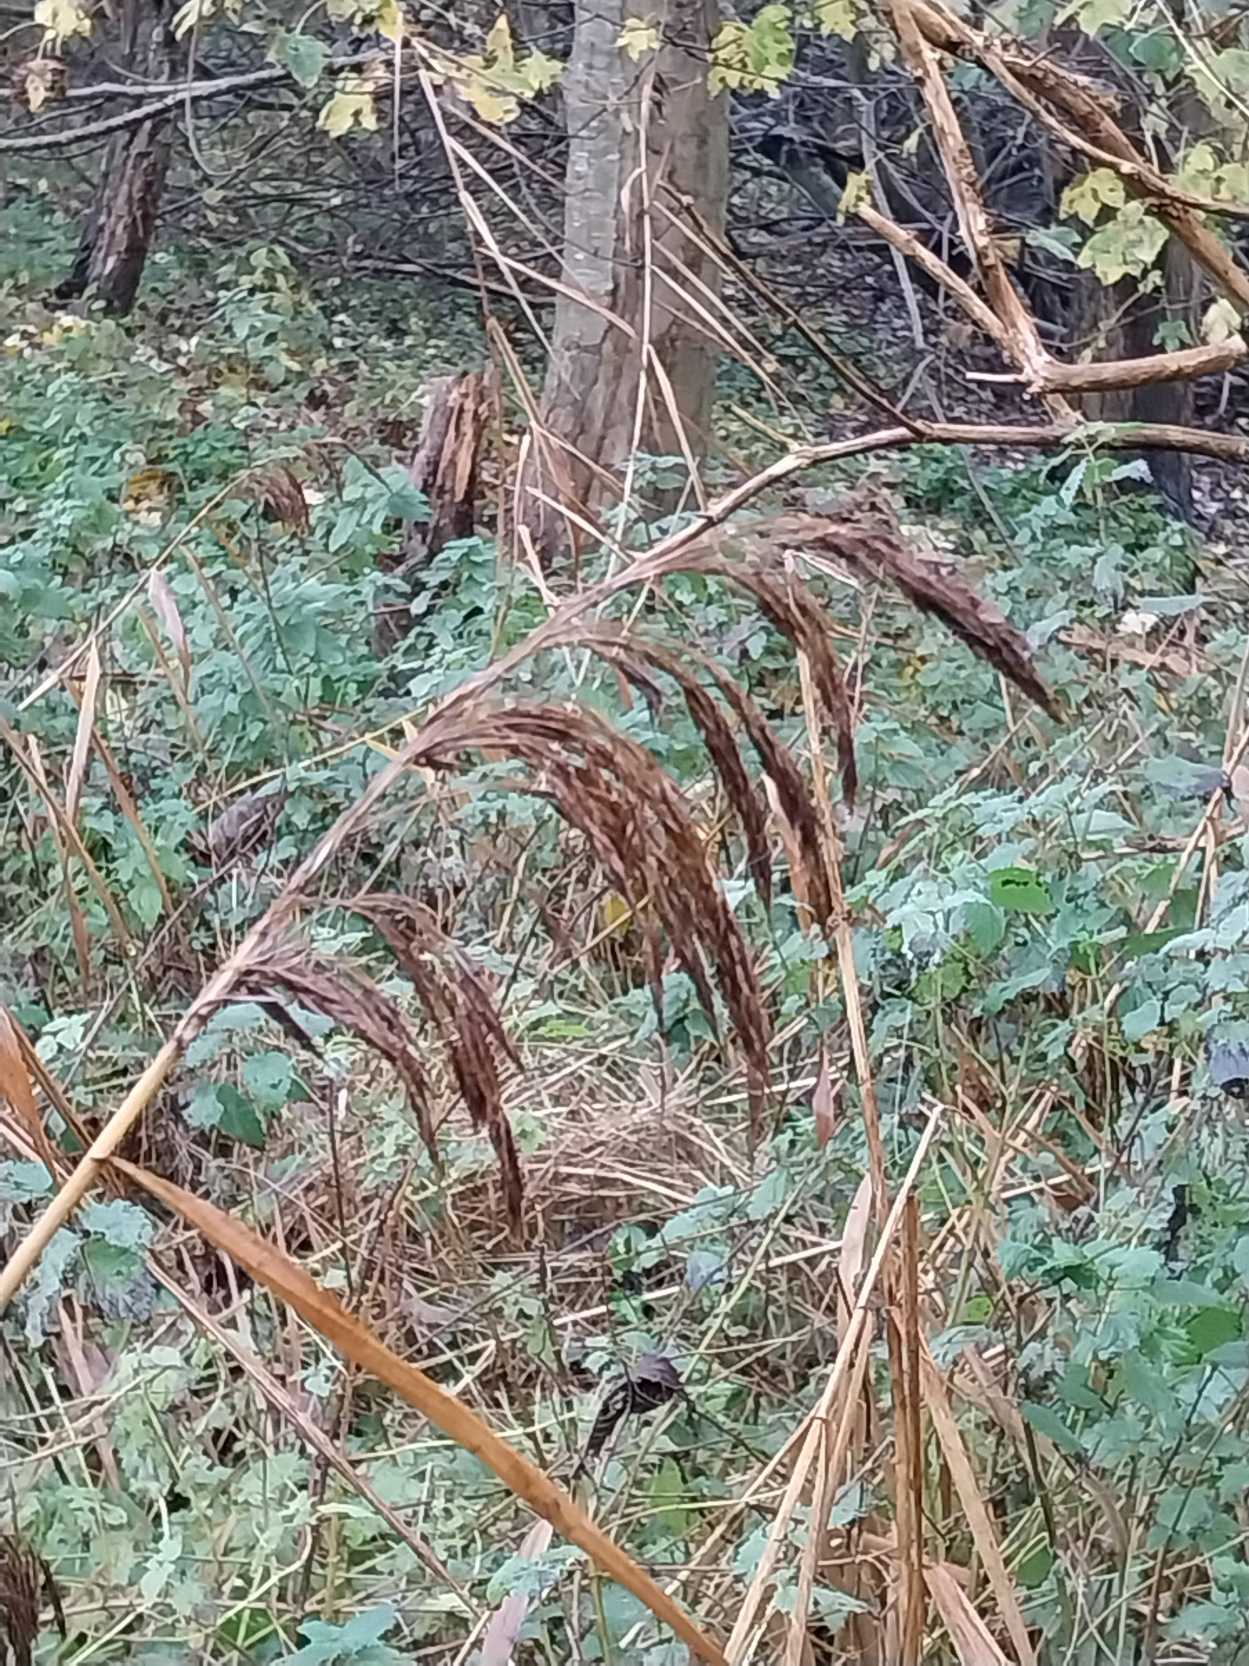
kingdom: Plantae
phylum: Tracheophyta
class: Liliopsida
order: Poales
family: Poaceae
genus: Phragmites
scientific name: Phragmites australis
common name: Tagrør
